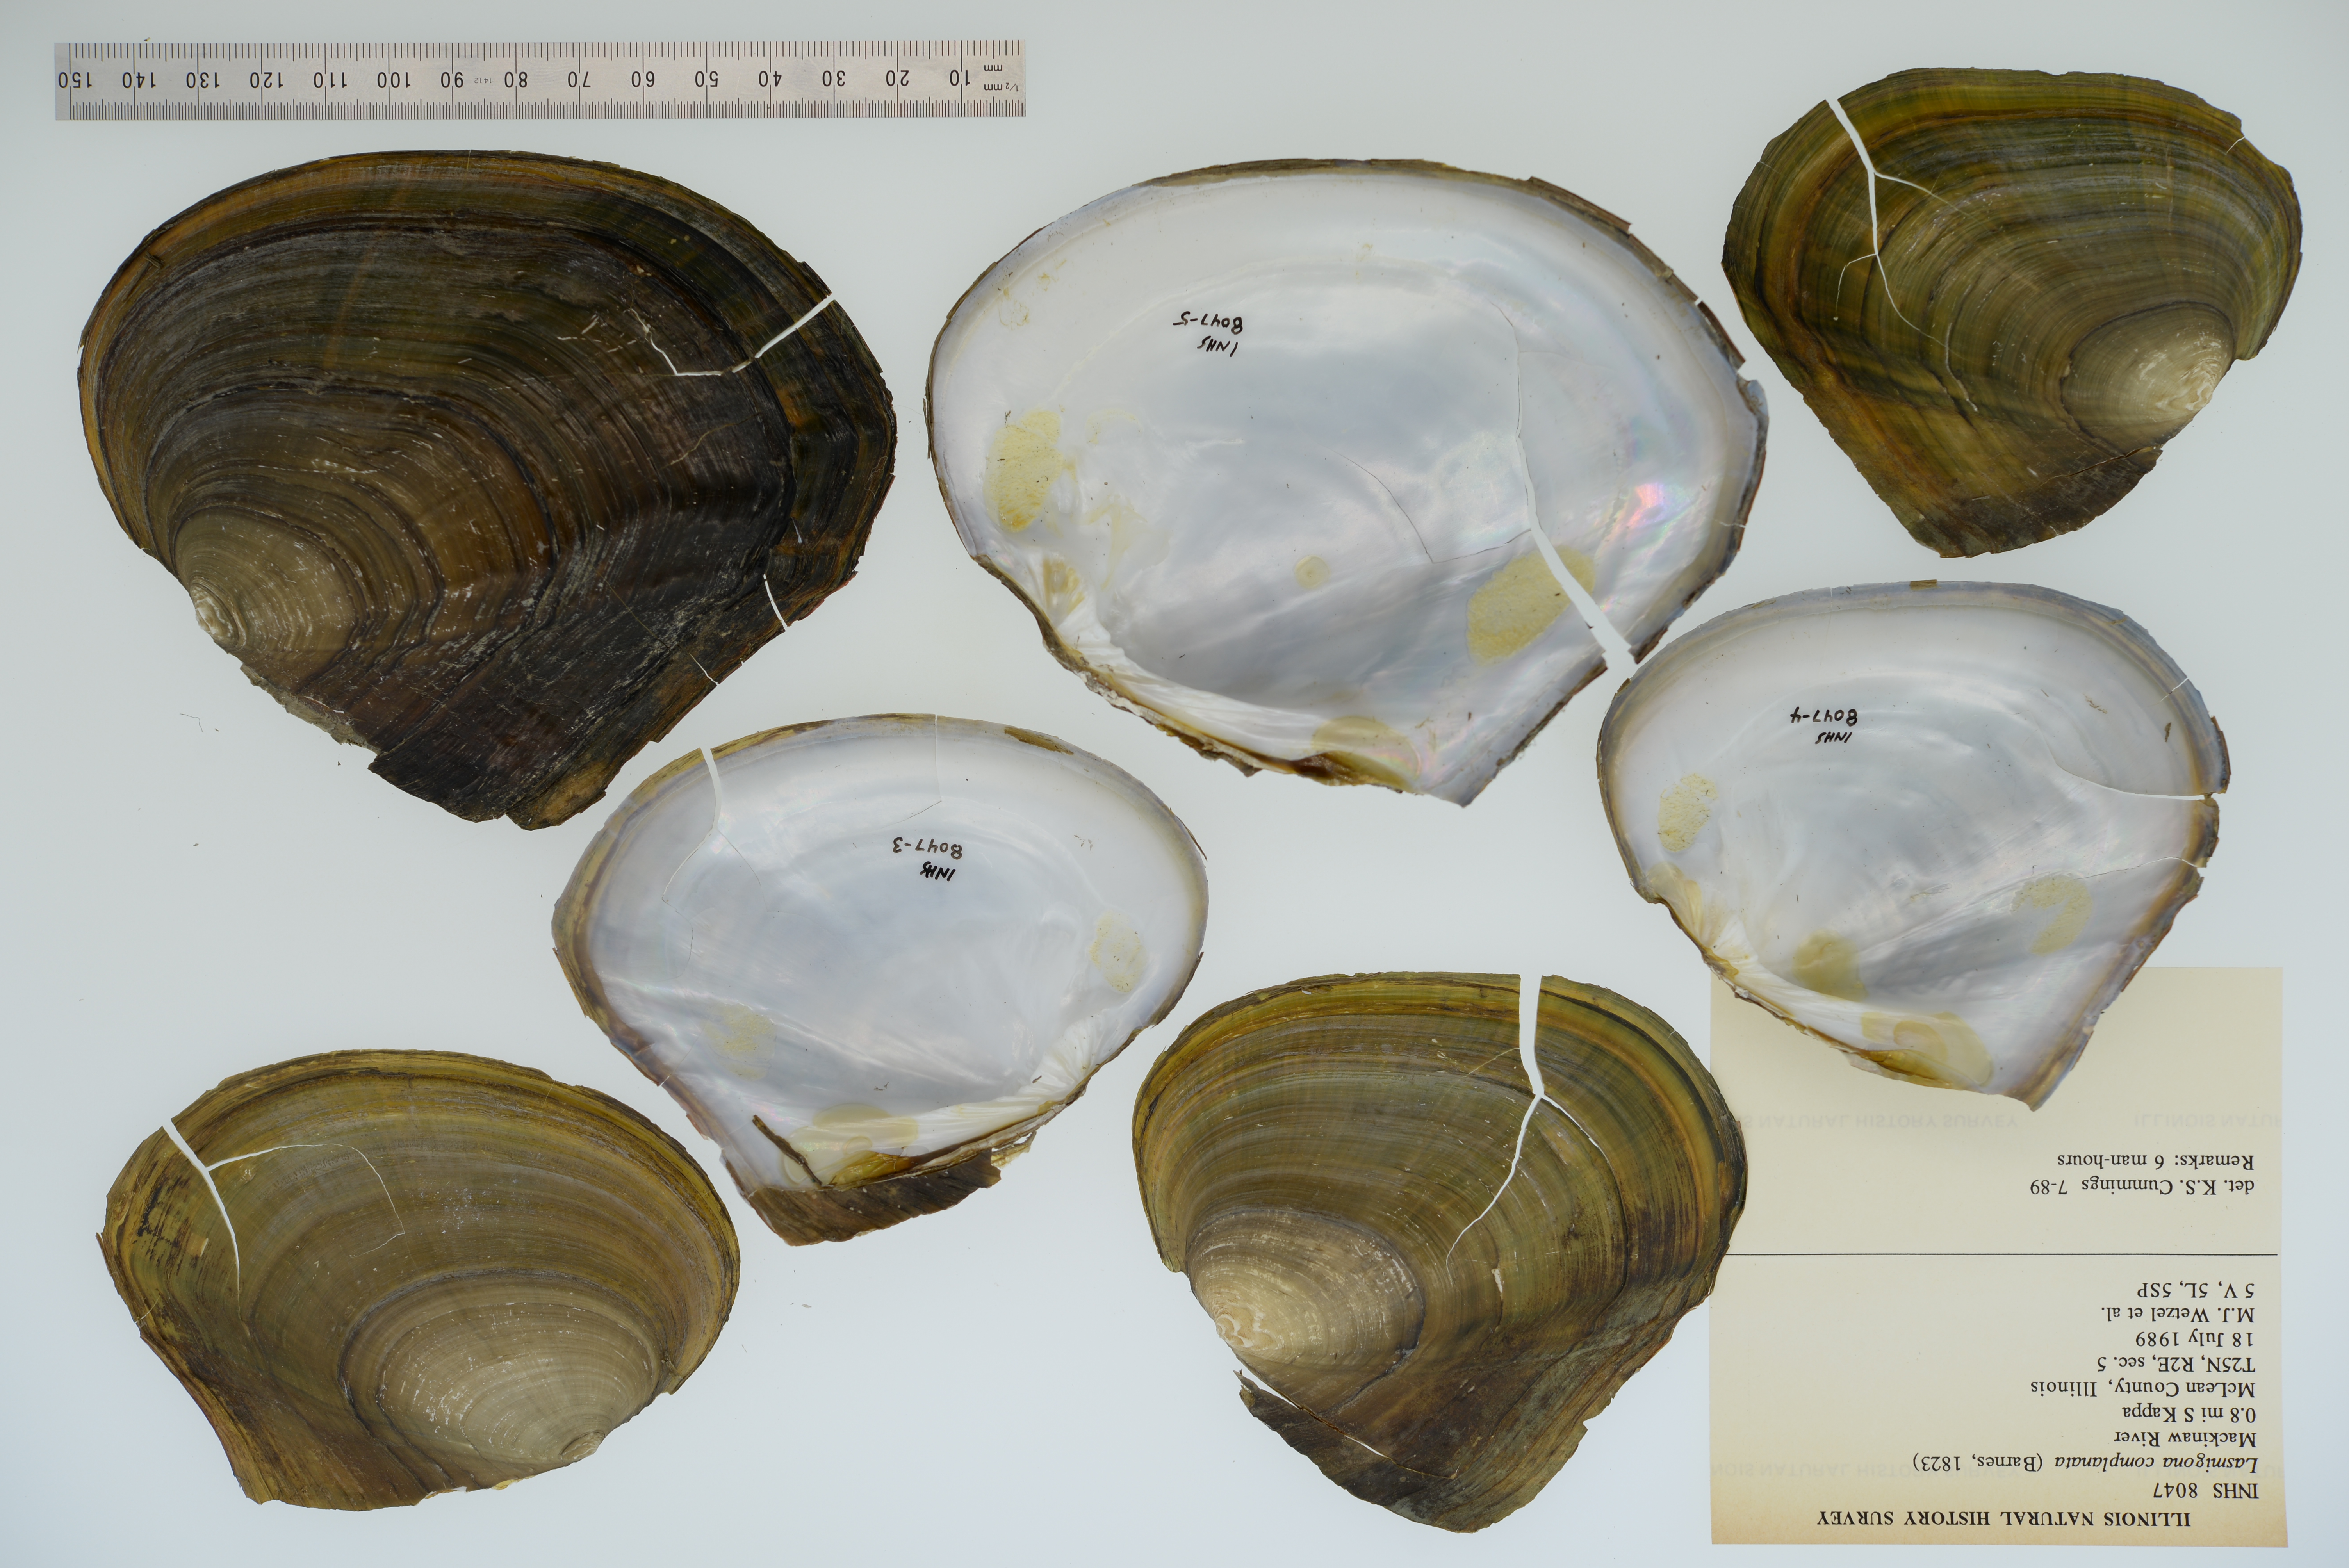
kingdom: Animalia
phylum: Mollusca
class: Bivalvia
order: Unionida
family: Unionidae
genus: Lasmigona
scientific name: Lasmigona complanata
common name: White heelsplitter
